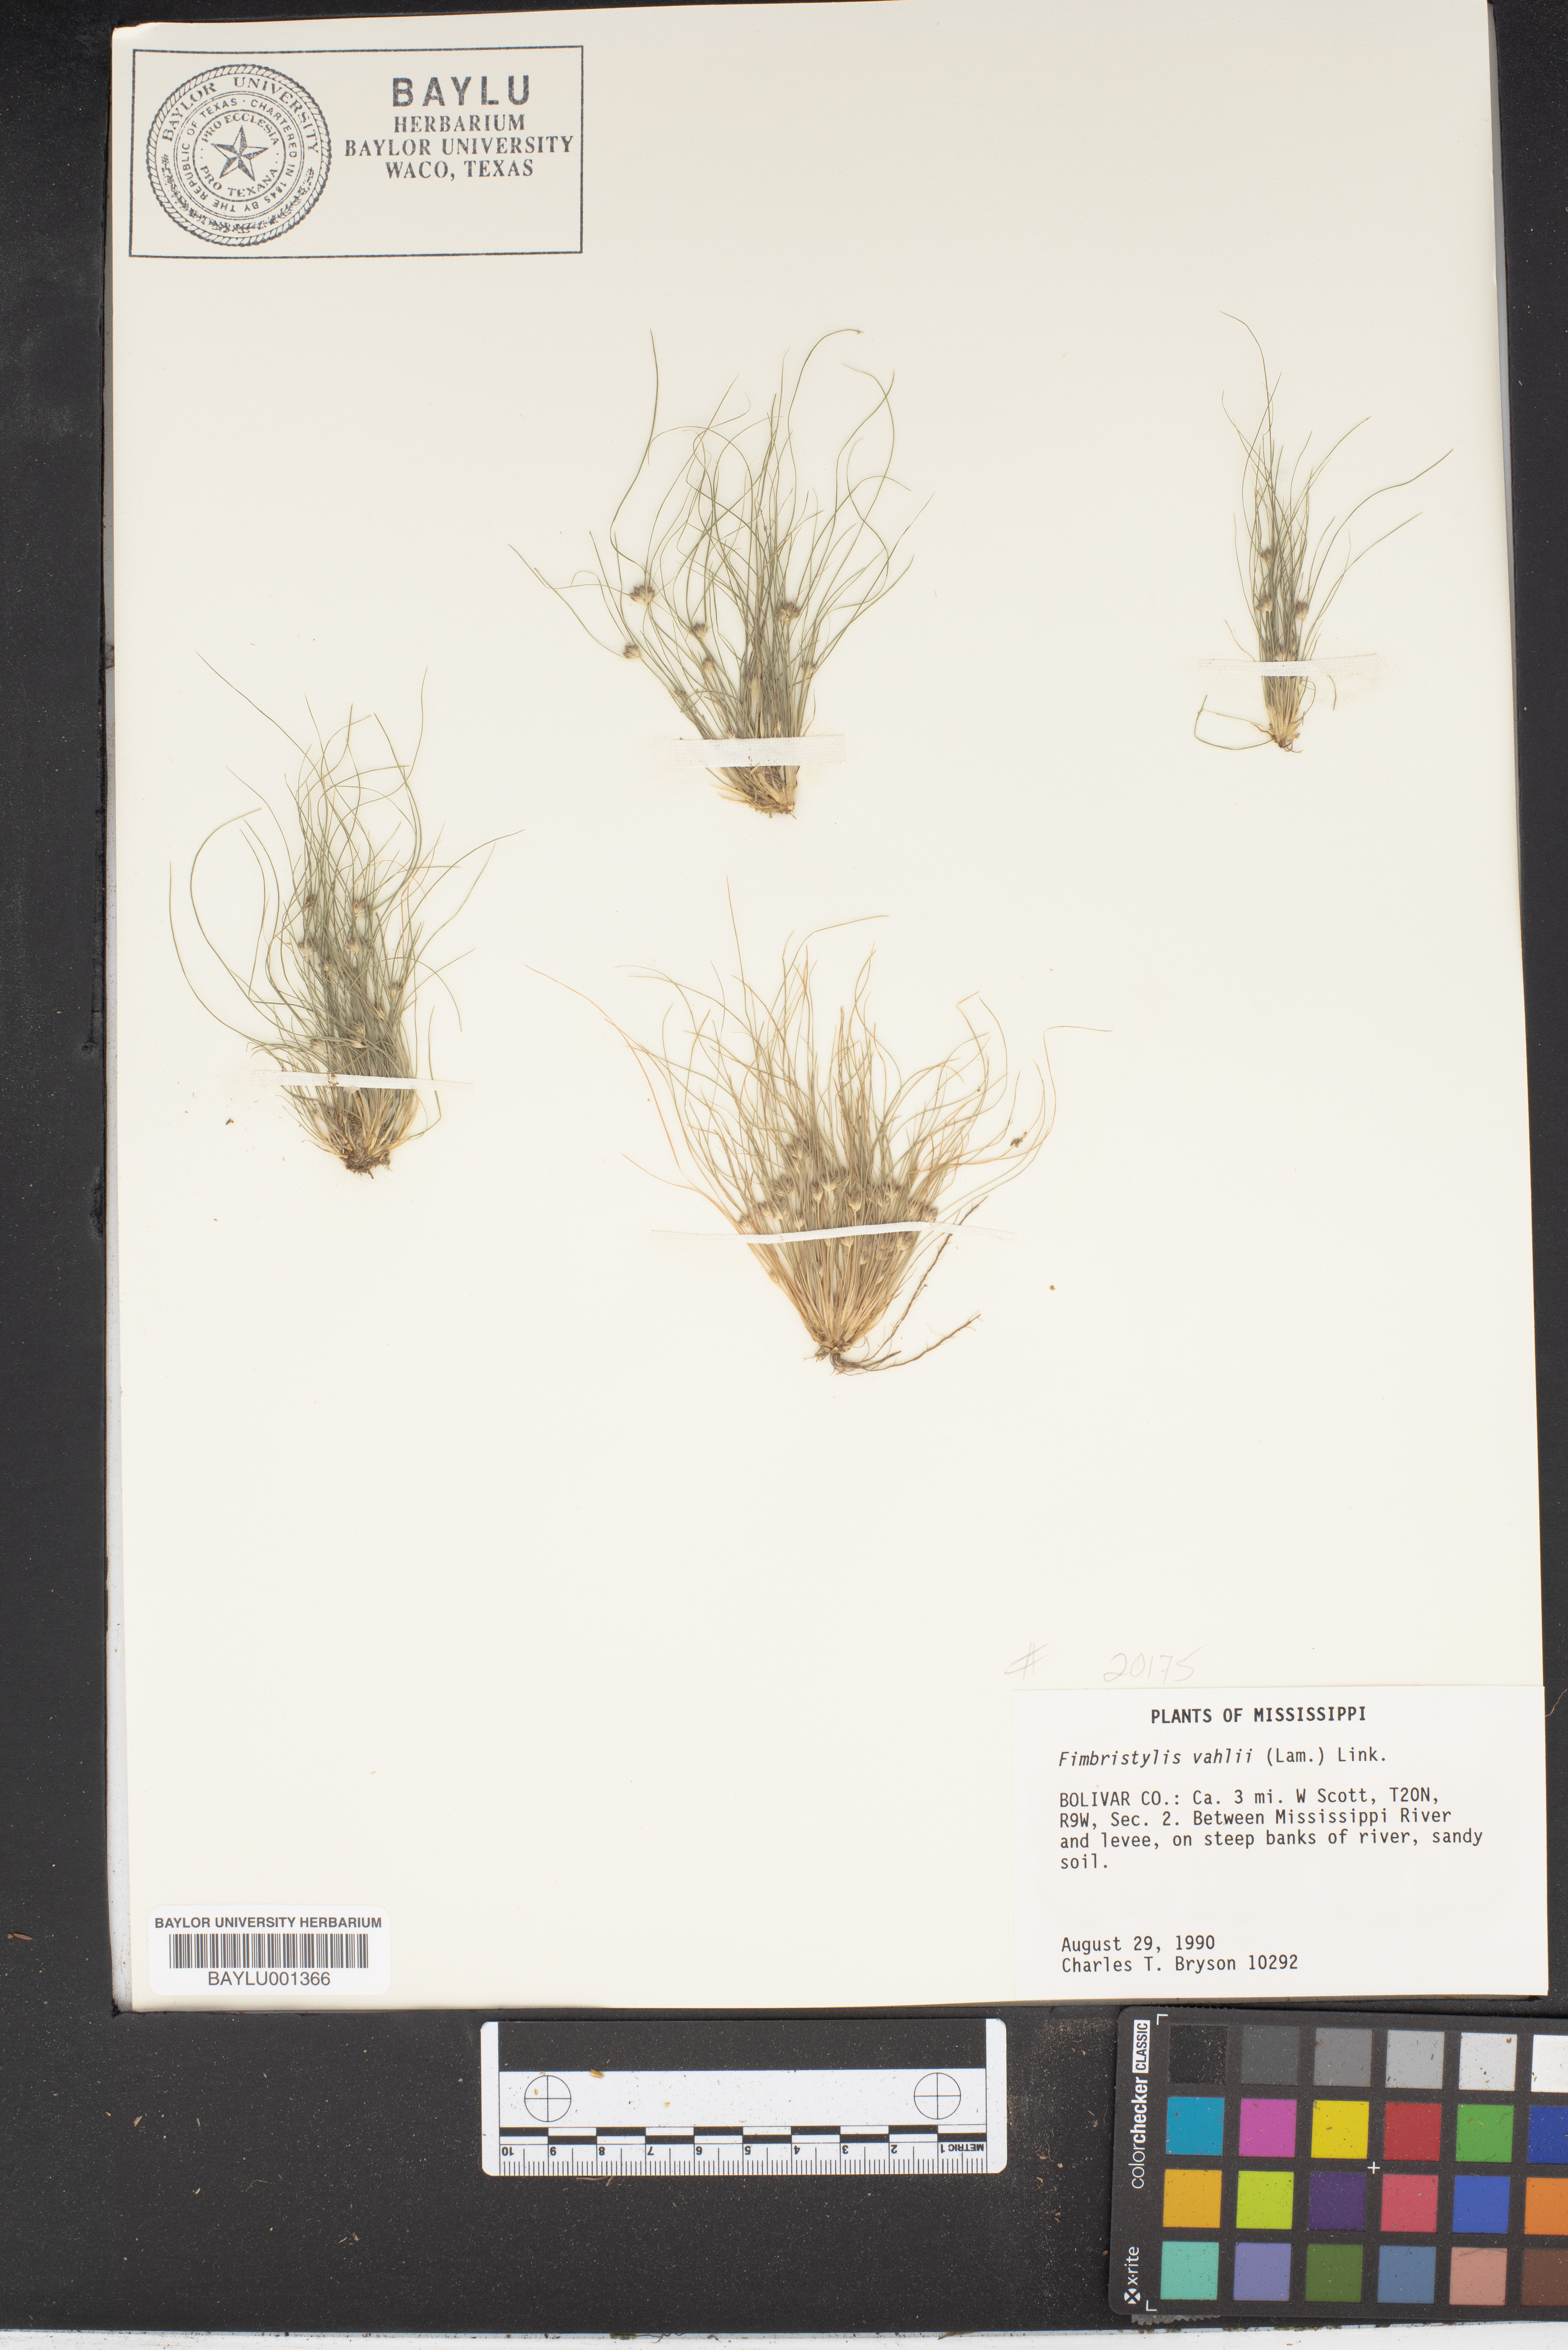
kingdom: Plantae
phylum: Tracheophyta
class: Liliopsida
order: Poales
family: Cyperaceae
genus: Fimbristylis
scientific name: Fimbristylis vahlii
